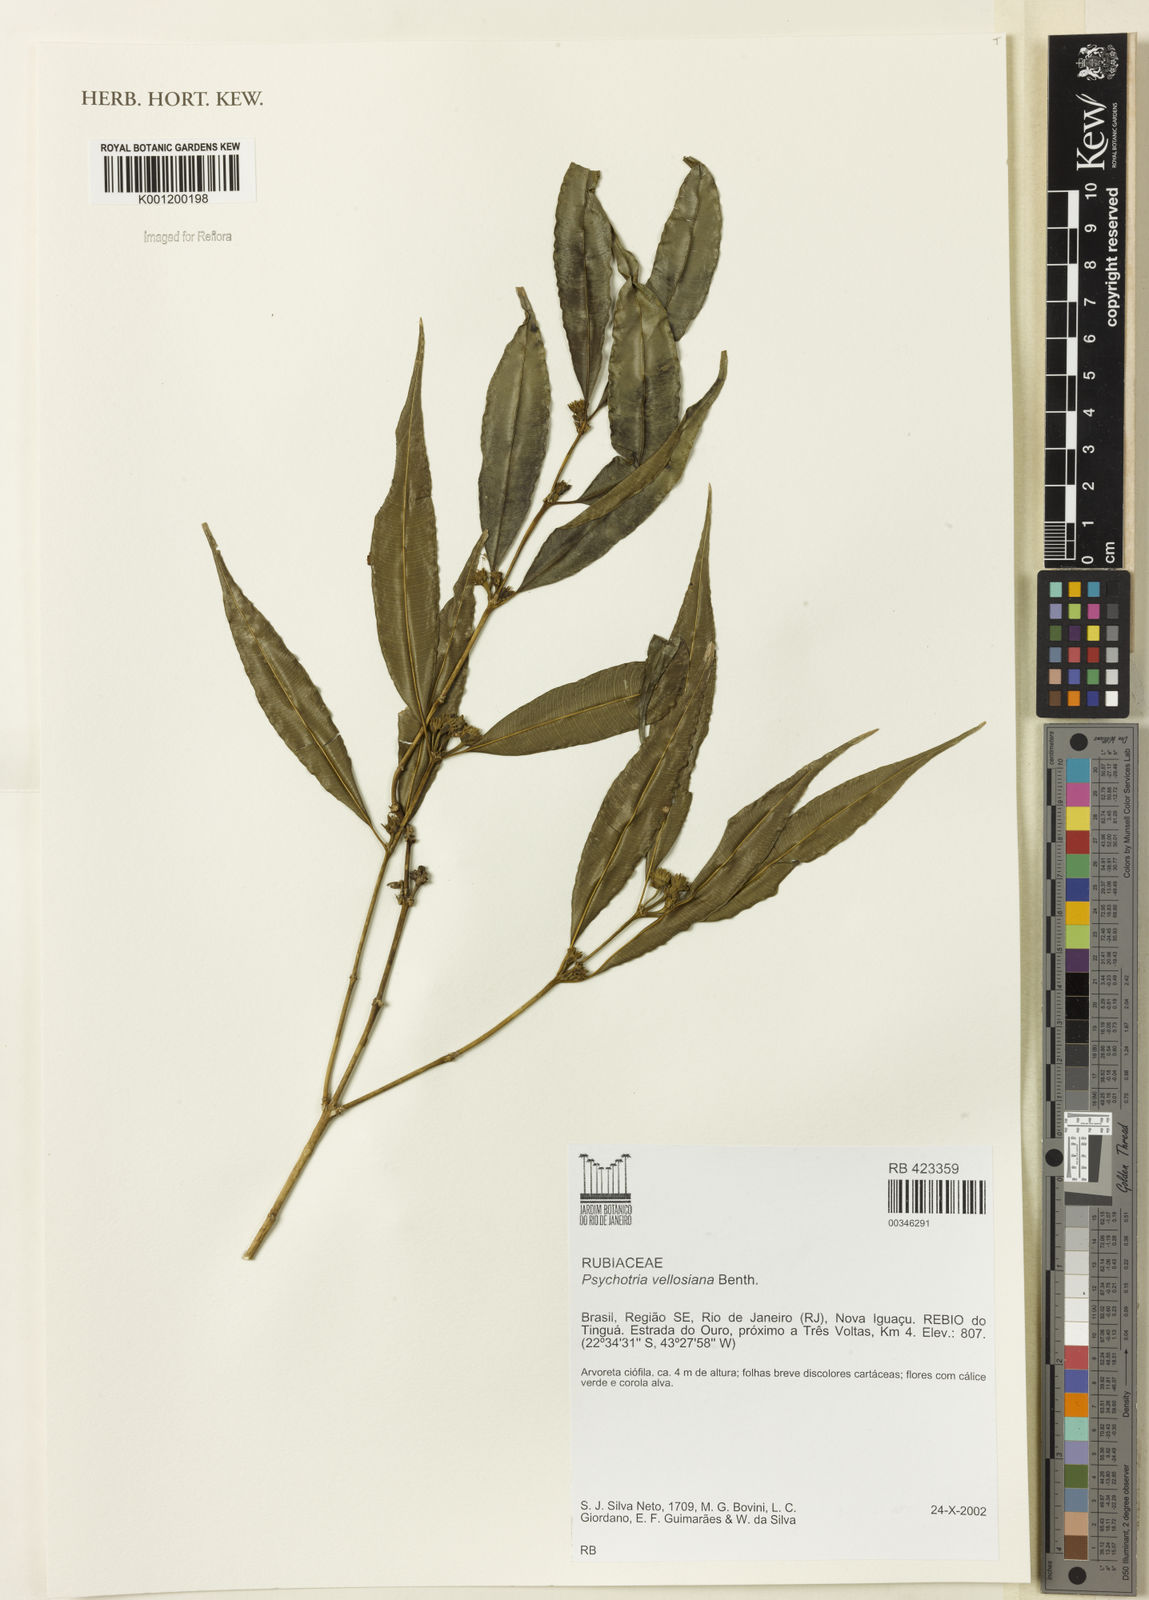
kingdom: Plantae
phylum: Tracheophyta
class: Magnoliopsida
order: Gentianales
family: Rubiaceae
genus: Palicourea
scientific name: Palicourea sessilis
